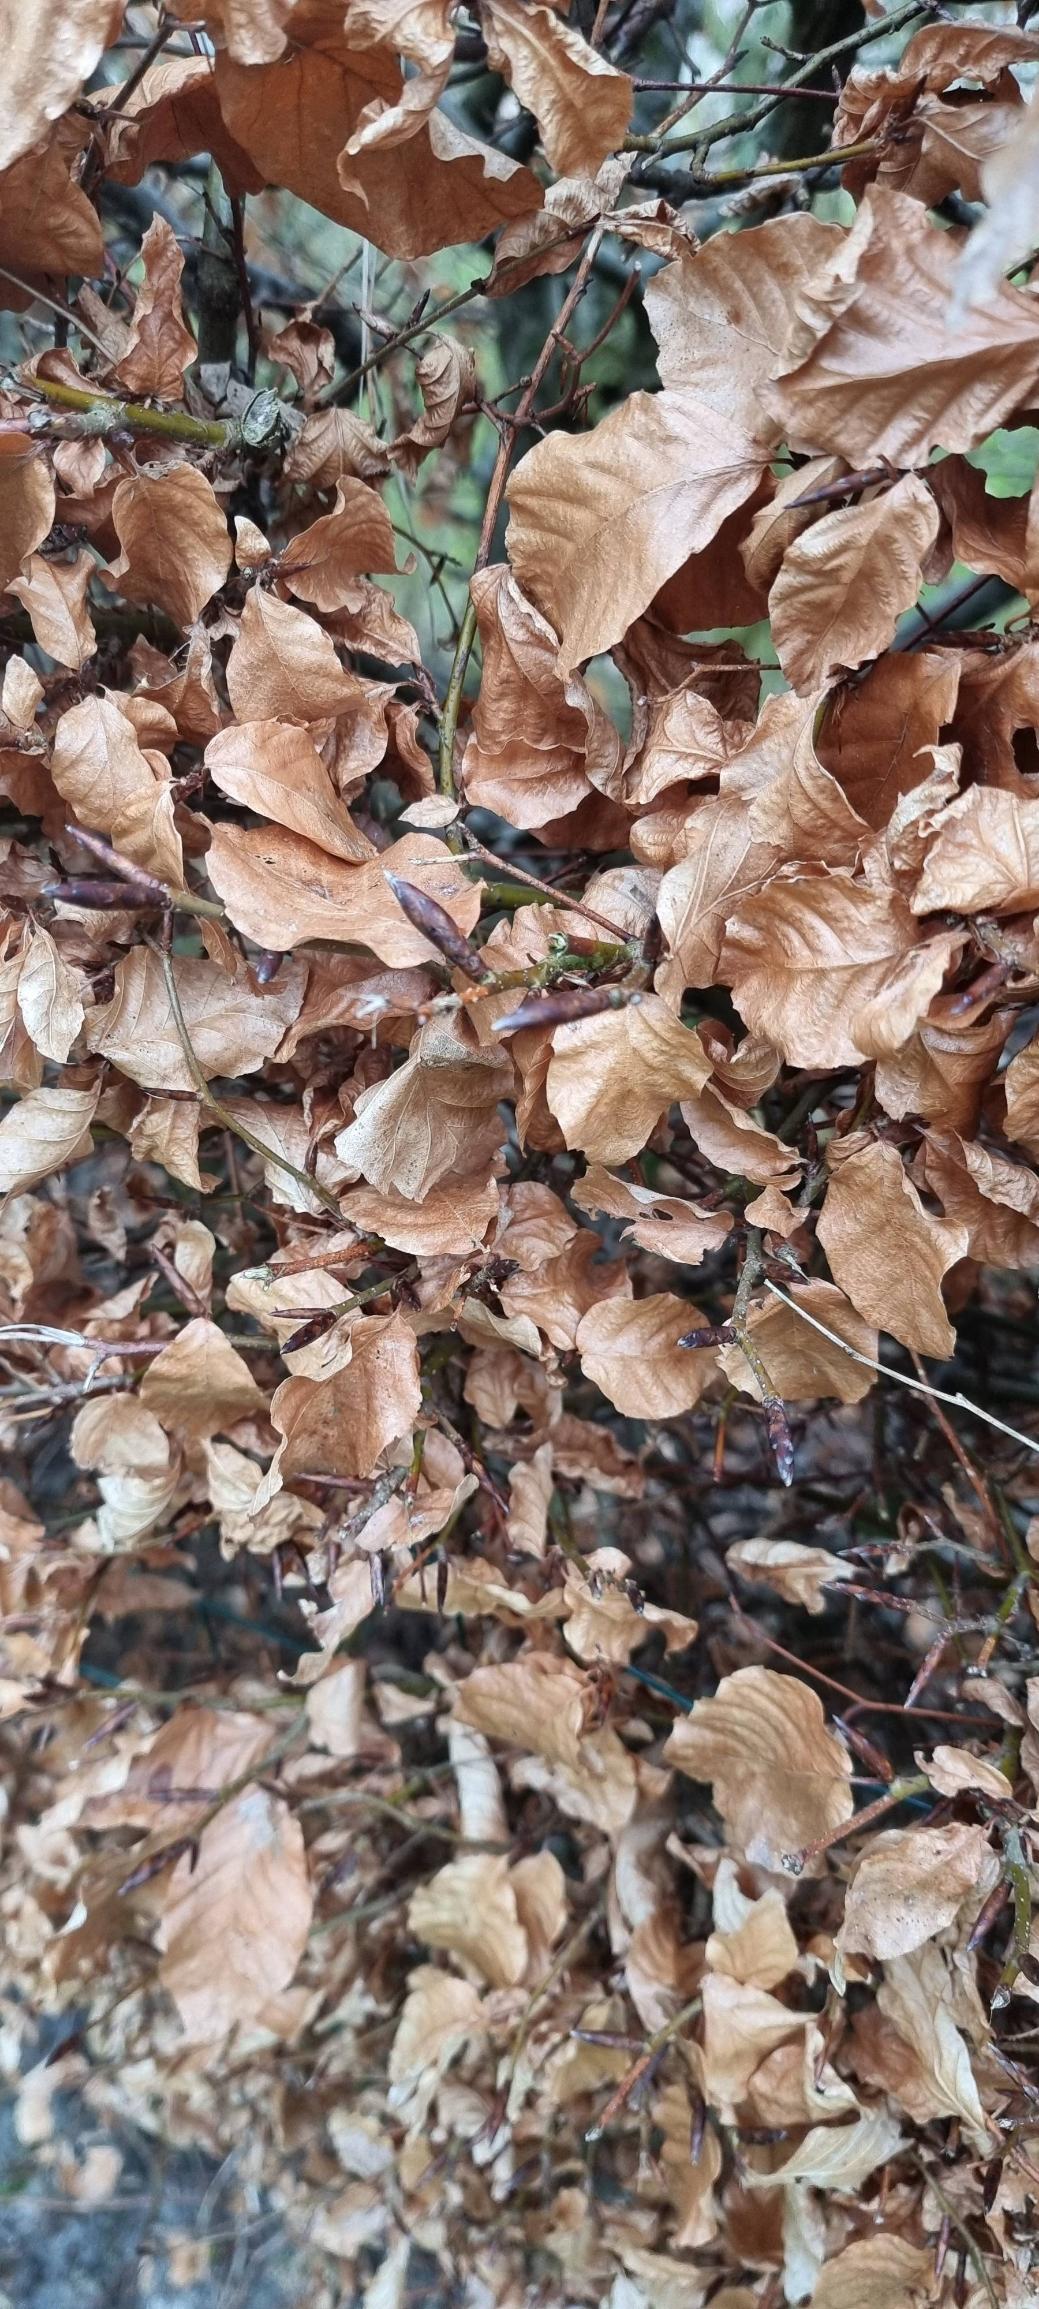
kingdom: Plantae
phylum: Tracheophyta
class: Magnoliopsida
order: Fagales
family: Fagaceae
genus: Fagus
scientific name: Fagus sylvatica
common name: Bøg
